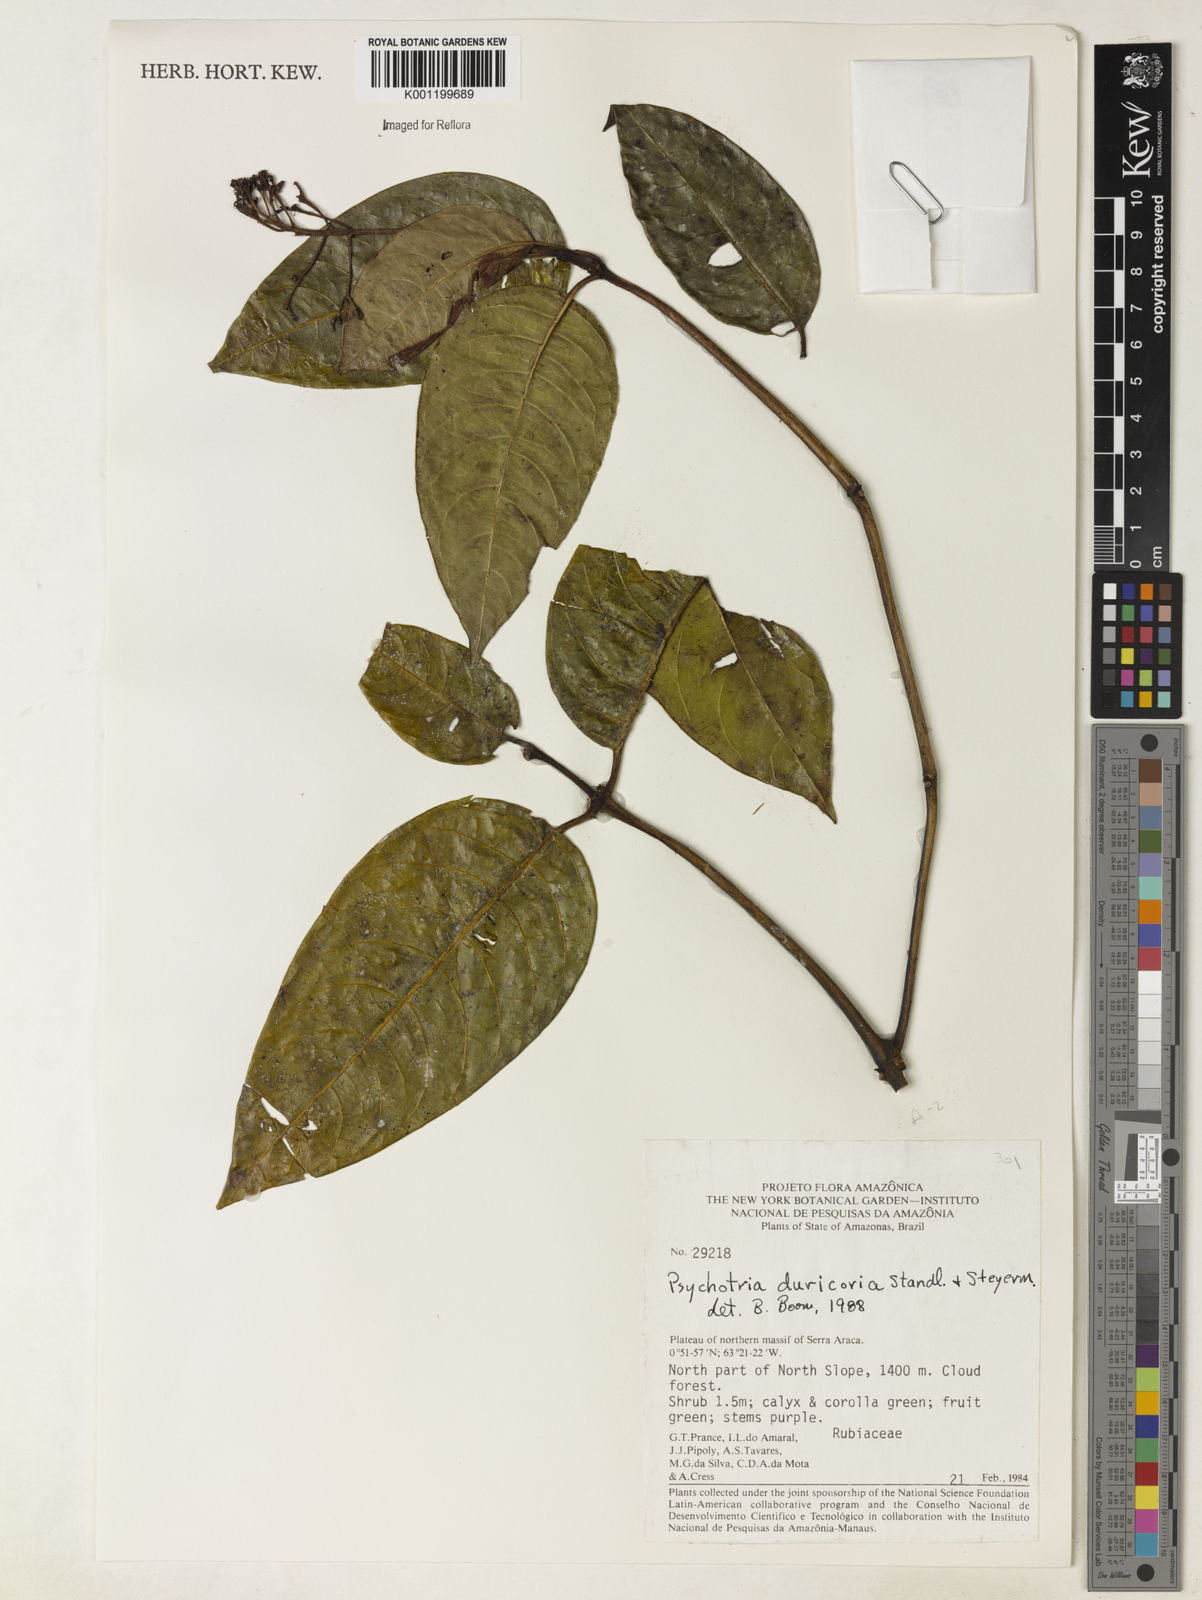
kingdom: Plantae
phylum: Tracheophyta
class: Magnoliopsida
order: Gentianales
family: Rubiaceae
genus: Palicourea
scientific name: Palicourea duricoria
